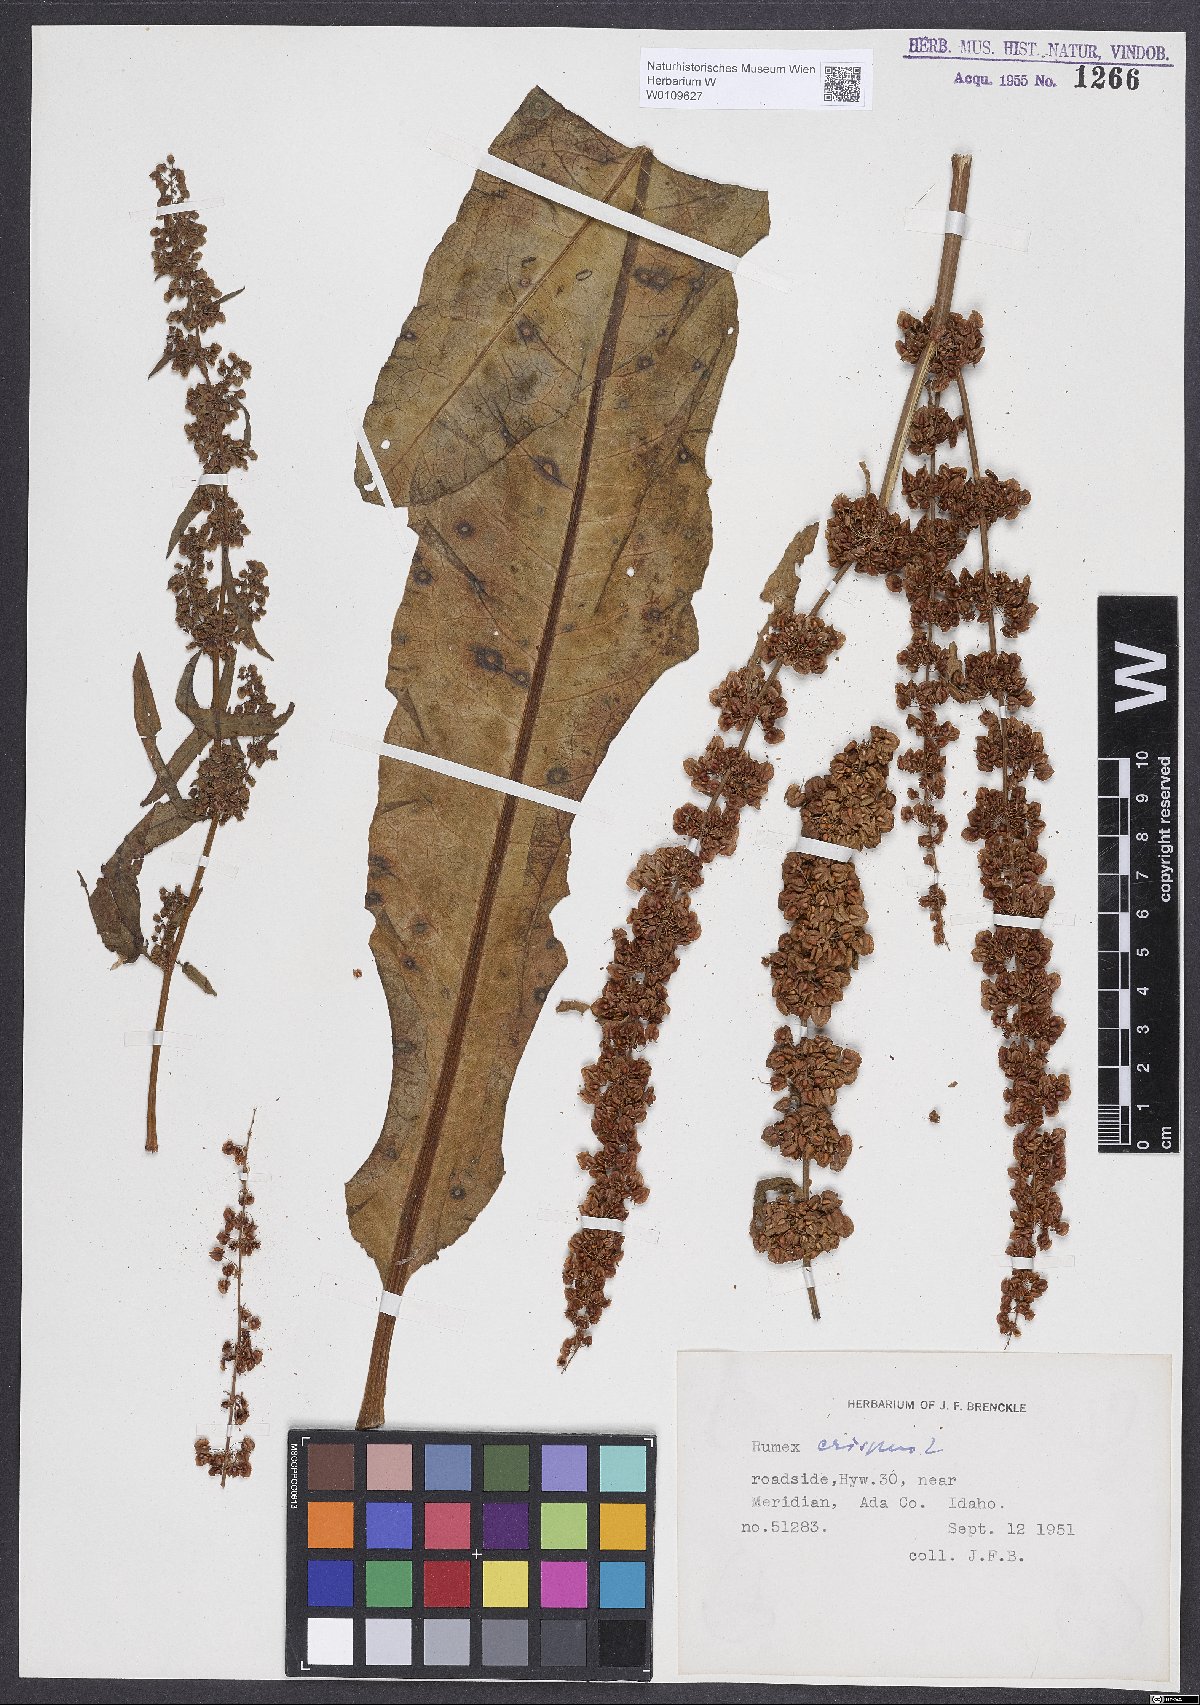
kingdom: Plantae
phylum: Tracheophyta
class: Magnoliopsida
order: Caryophyllales
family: Polygonaceae
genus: Rumex
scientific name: Rumex crispus
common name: Curled dock
